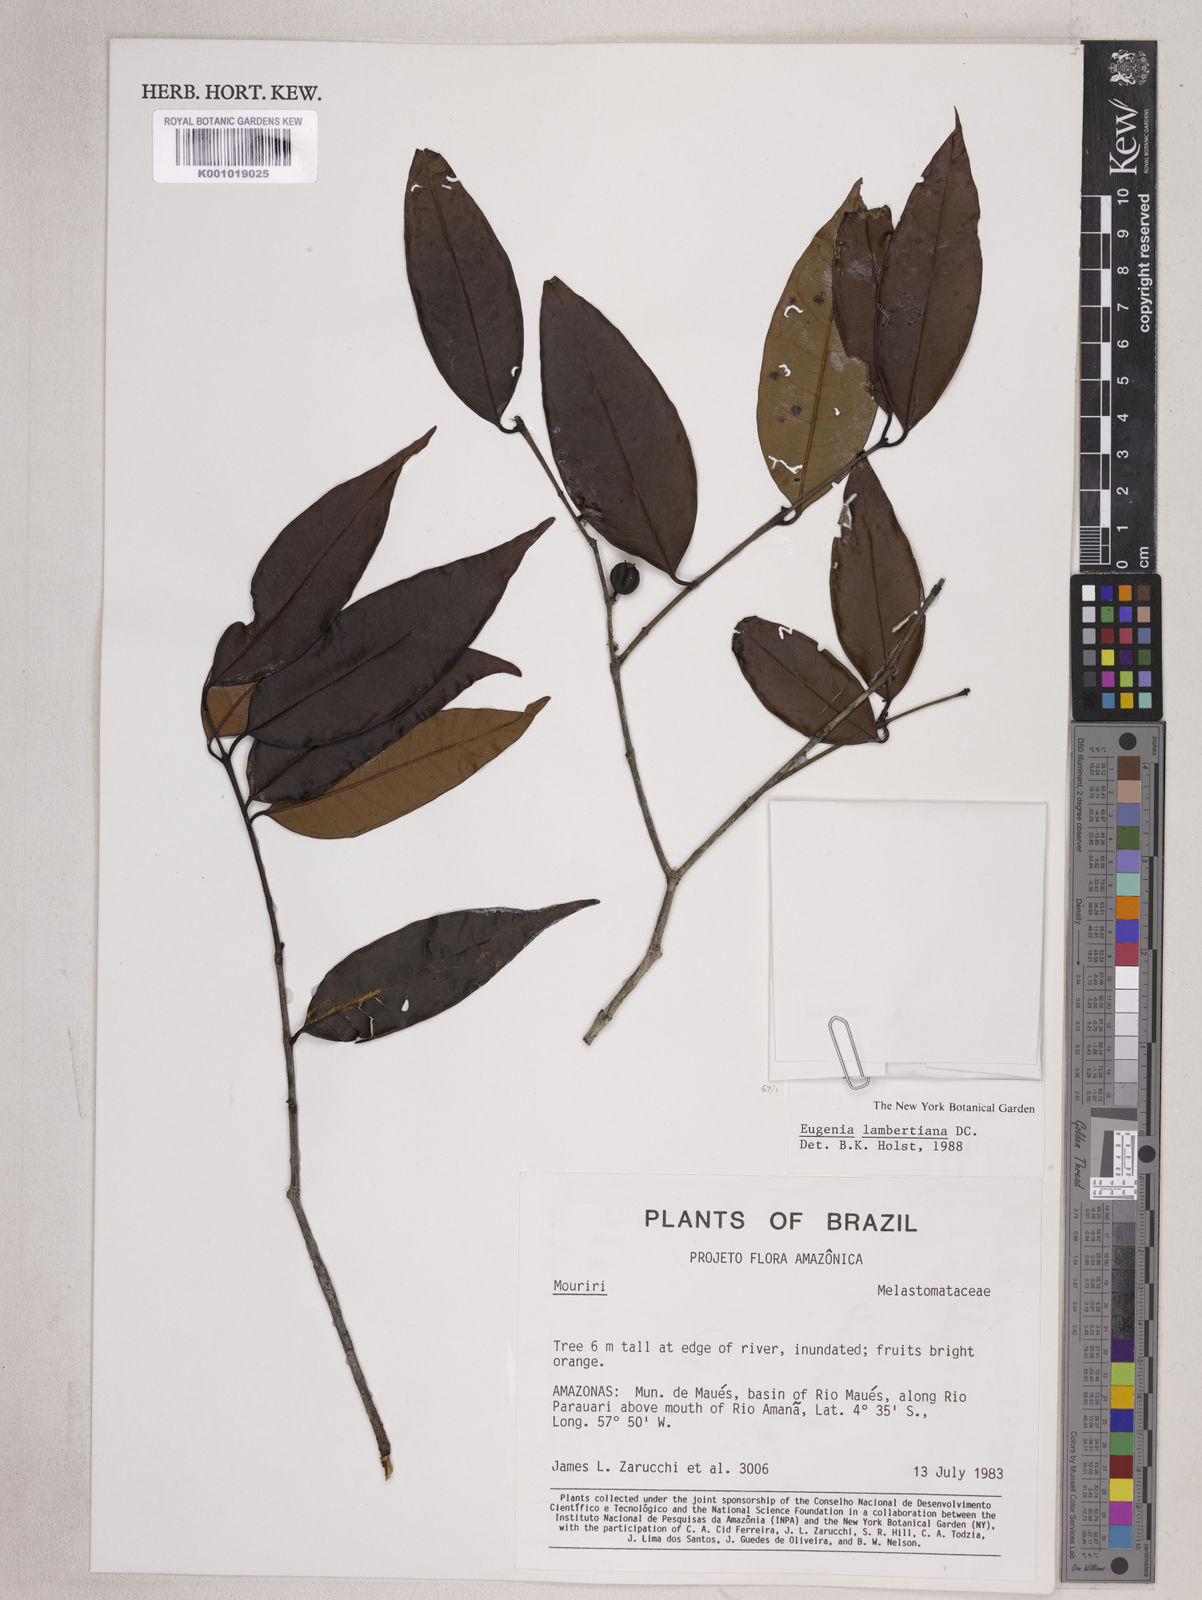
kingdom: Plantae
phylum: Tracheophyta
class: Magnoliopsida
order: Myrtales
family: Myrtaceae
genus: Eugenia
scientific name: Eugenia lambertiana
